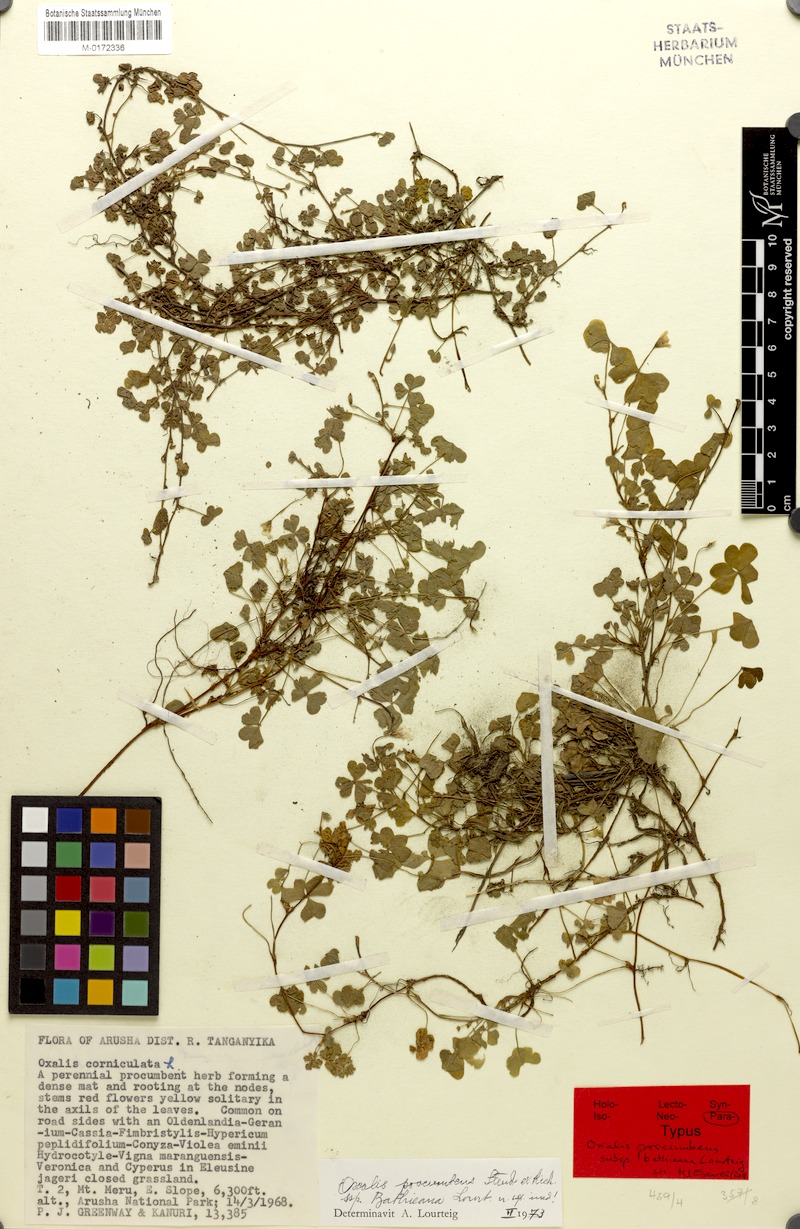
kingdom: Plantae
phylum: Tracheophyta
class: Magnoliopsida
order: Oxalidales
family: Oxalidaceae
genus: Oxalis
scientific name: Oxalis corniculata
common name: Procumbent yellow-sorrel
